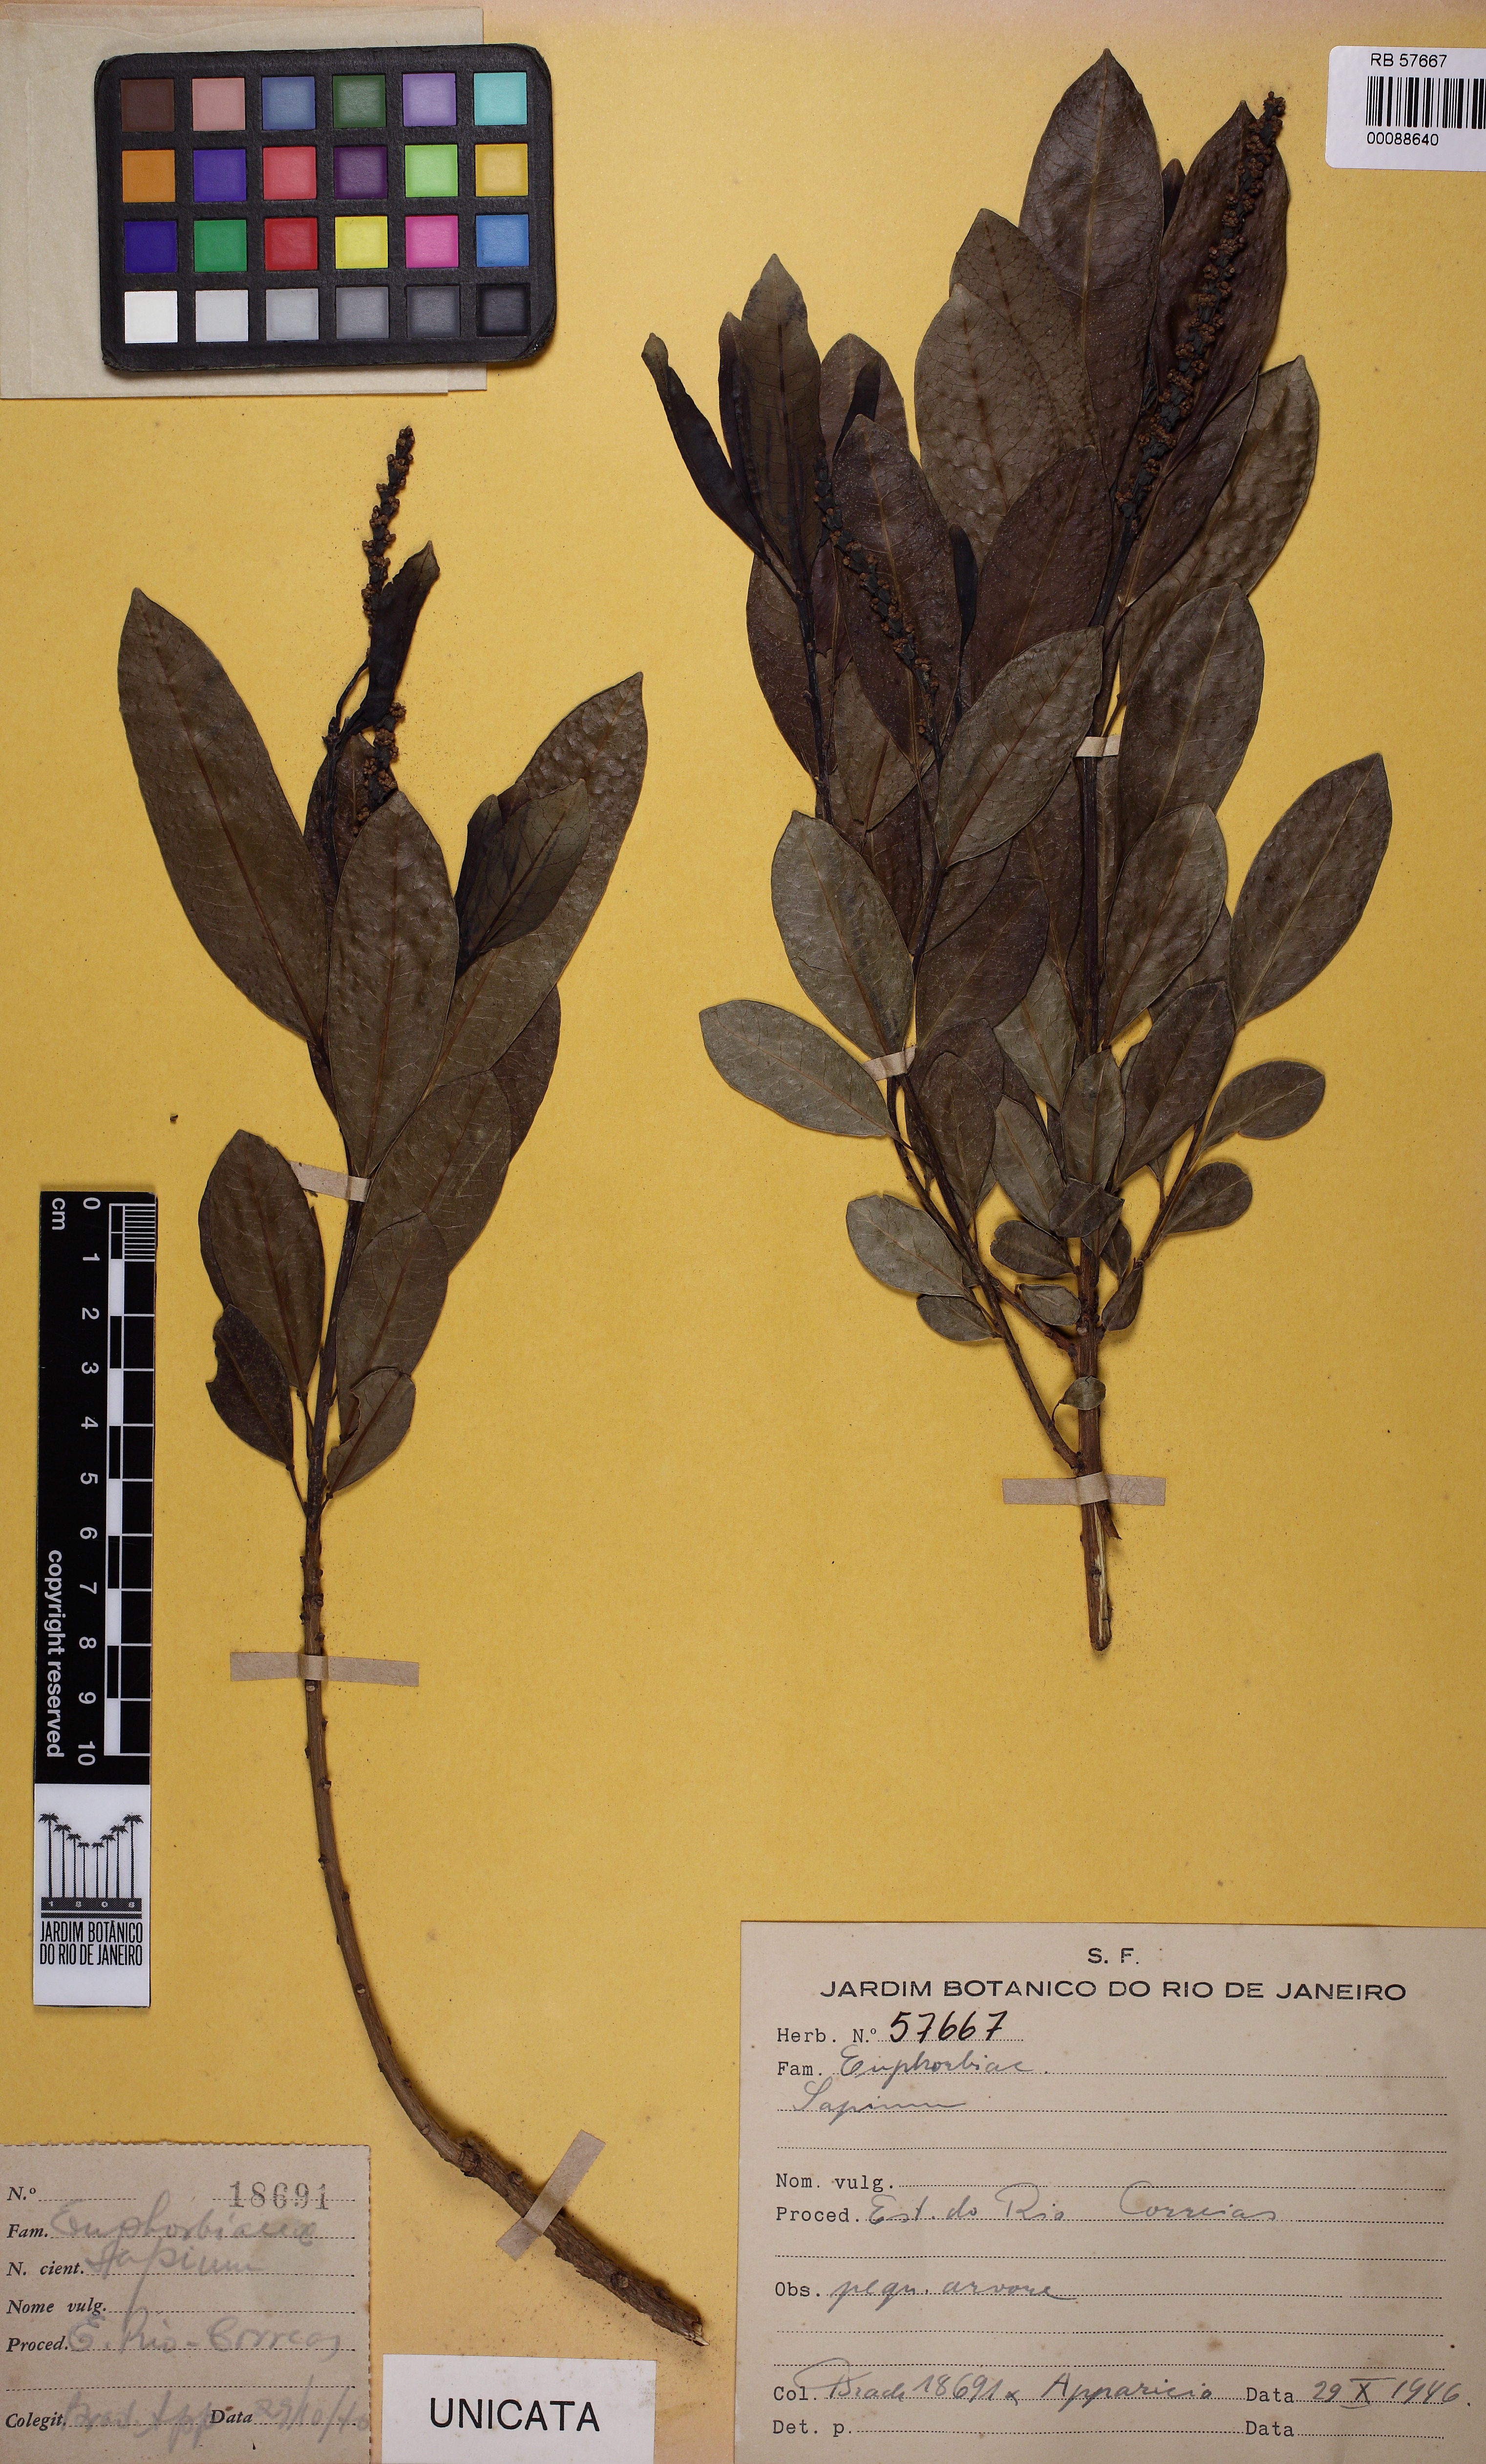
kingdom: Plantae
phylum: Tracheophyta
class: Magnoliopsida
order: Malpighiales
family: Euphorbiaceae
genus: Sapium
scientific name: Sapium glandulosum
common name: Milktree
